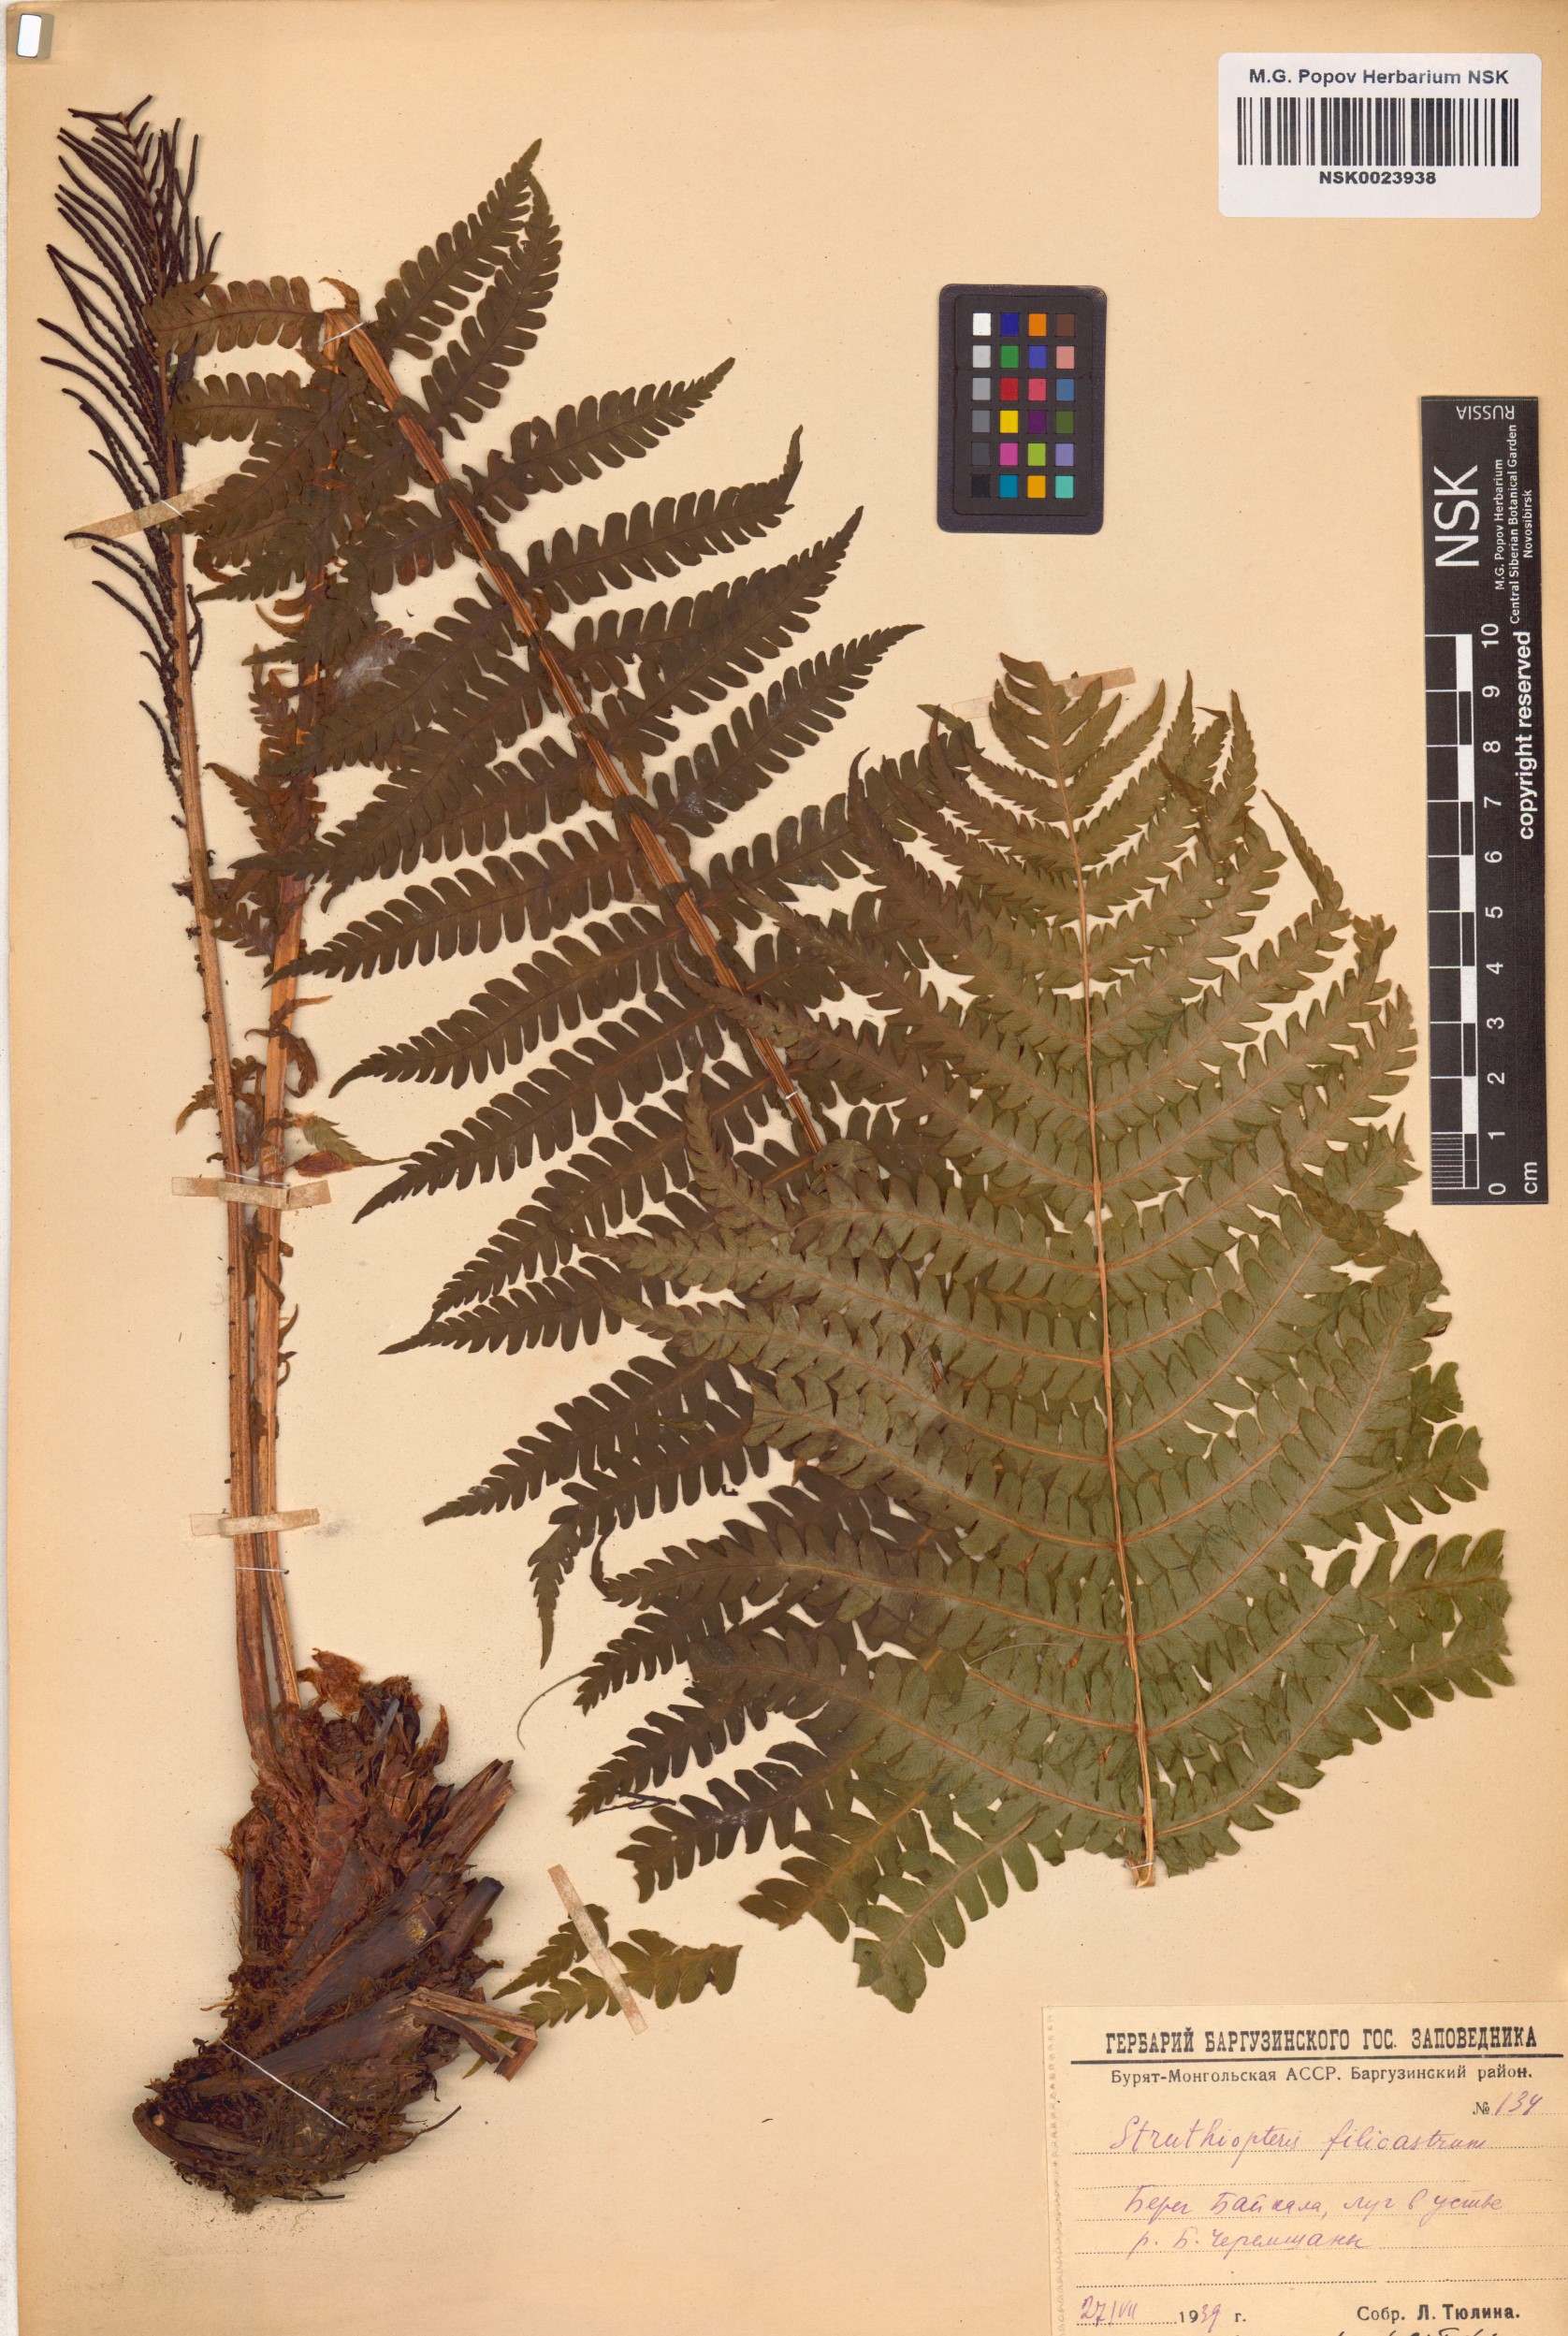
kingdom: Plantae
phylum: Tracheophyta
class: Polypodiopsida
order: Polypodiales
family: Onocleaceae
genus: Matteuccia
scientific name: Matteuccia struthiopteris
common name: Ostrich fern
